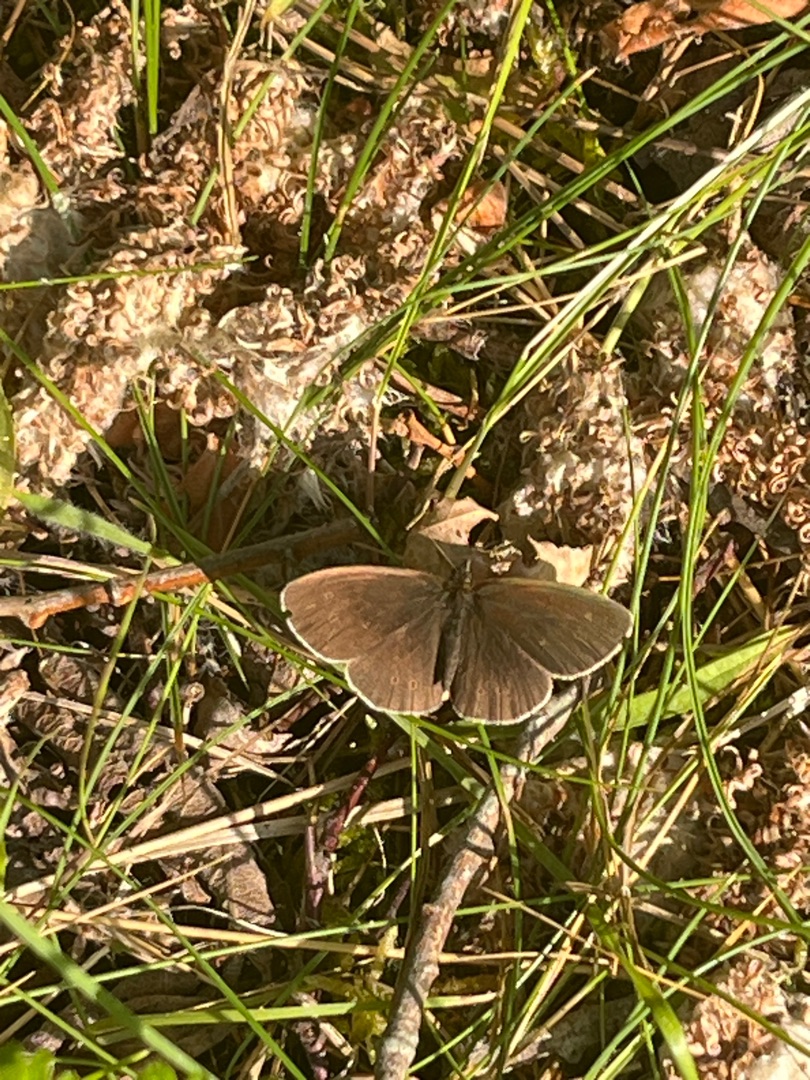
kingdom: Animalia
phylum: Arthropoda
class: Insecta
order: Lepidoptera
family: Nymphalidae
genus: Aphantopus
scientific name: Aphantopus hyperantus
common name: Engrandøje
